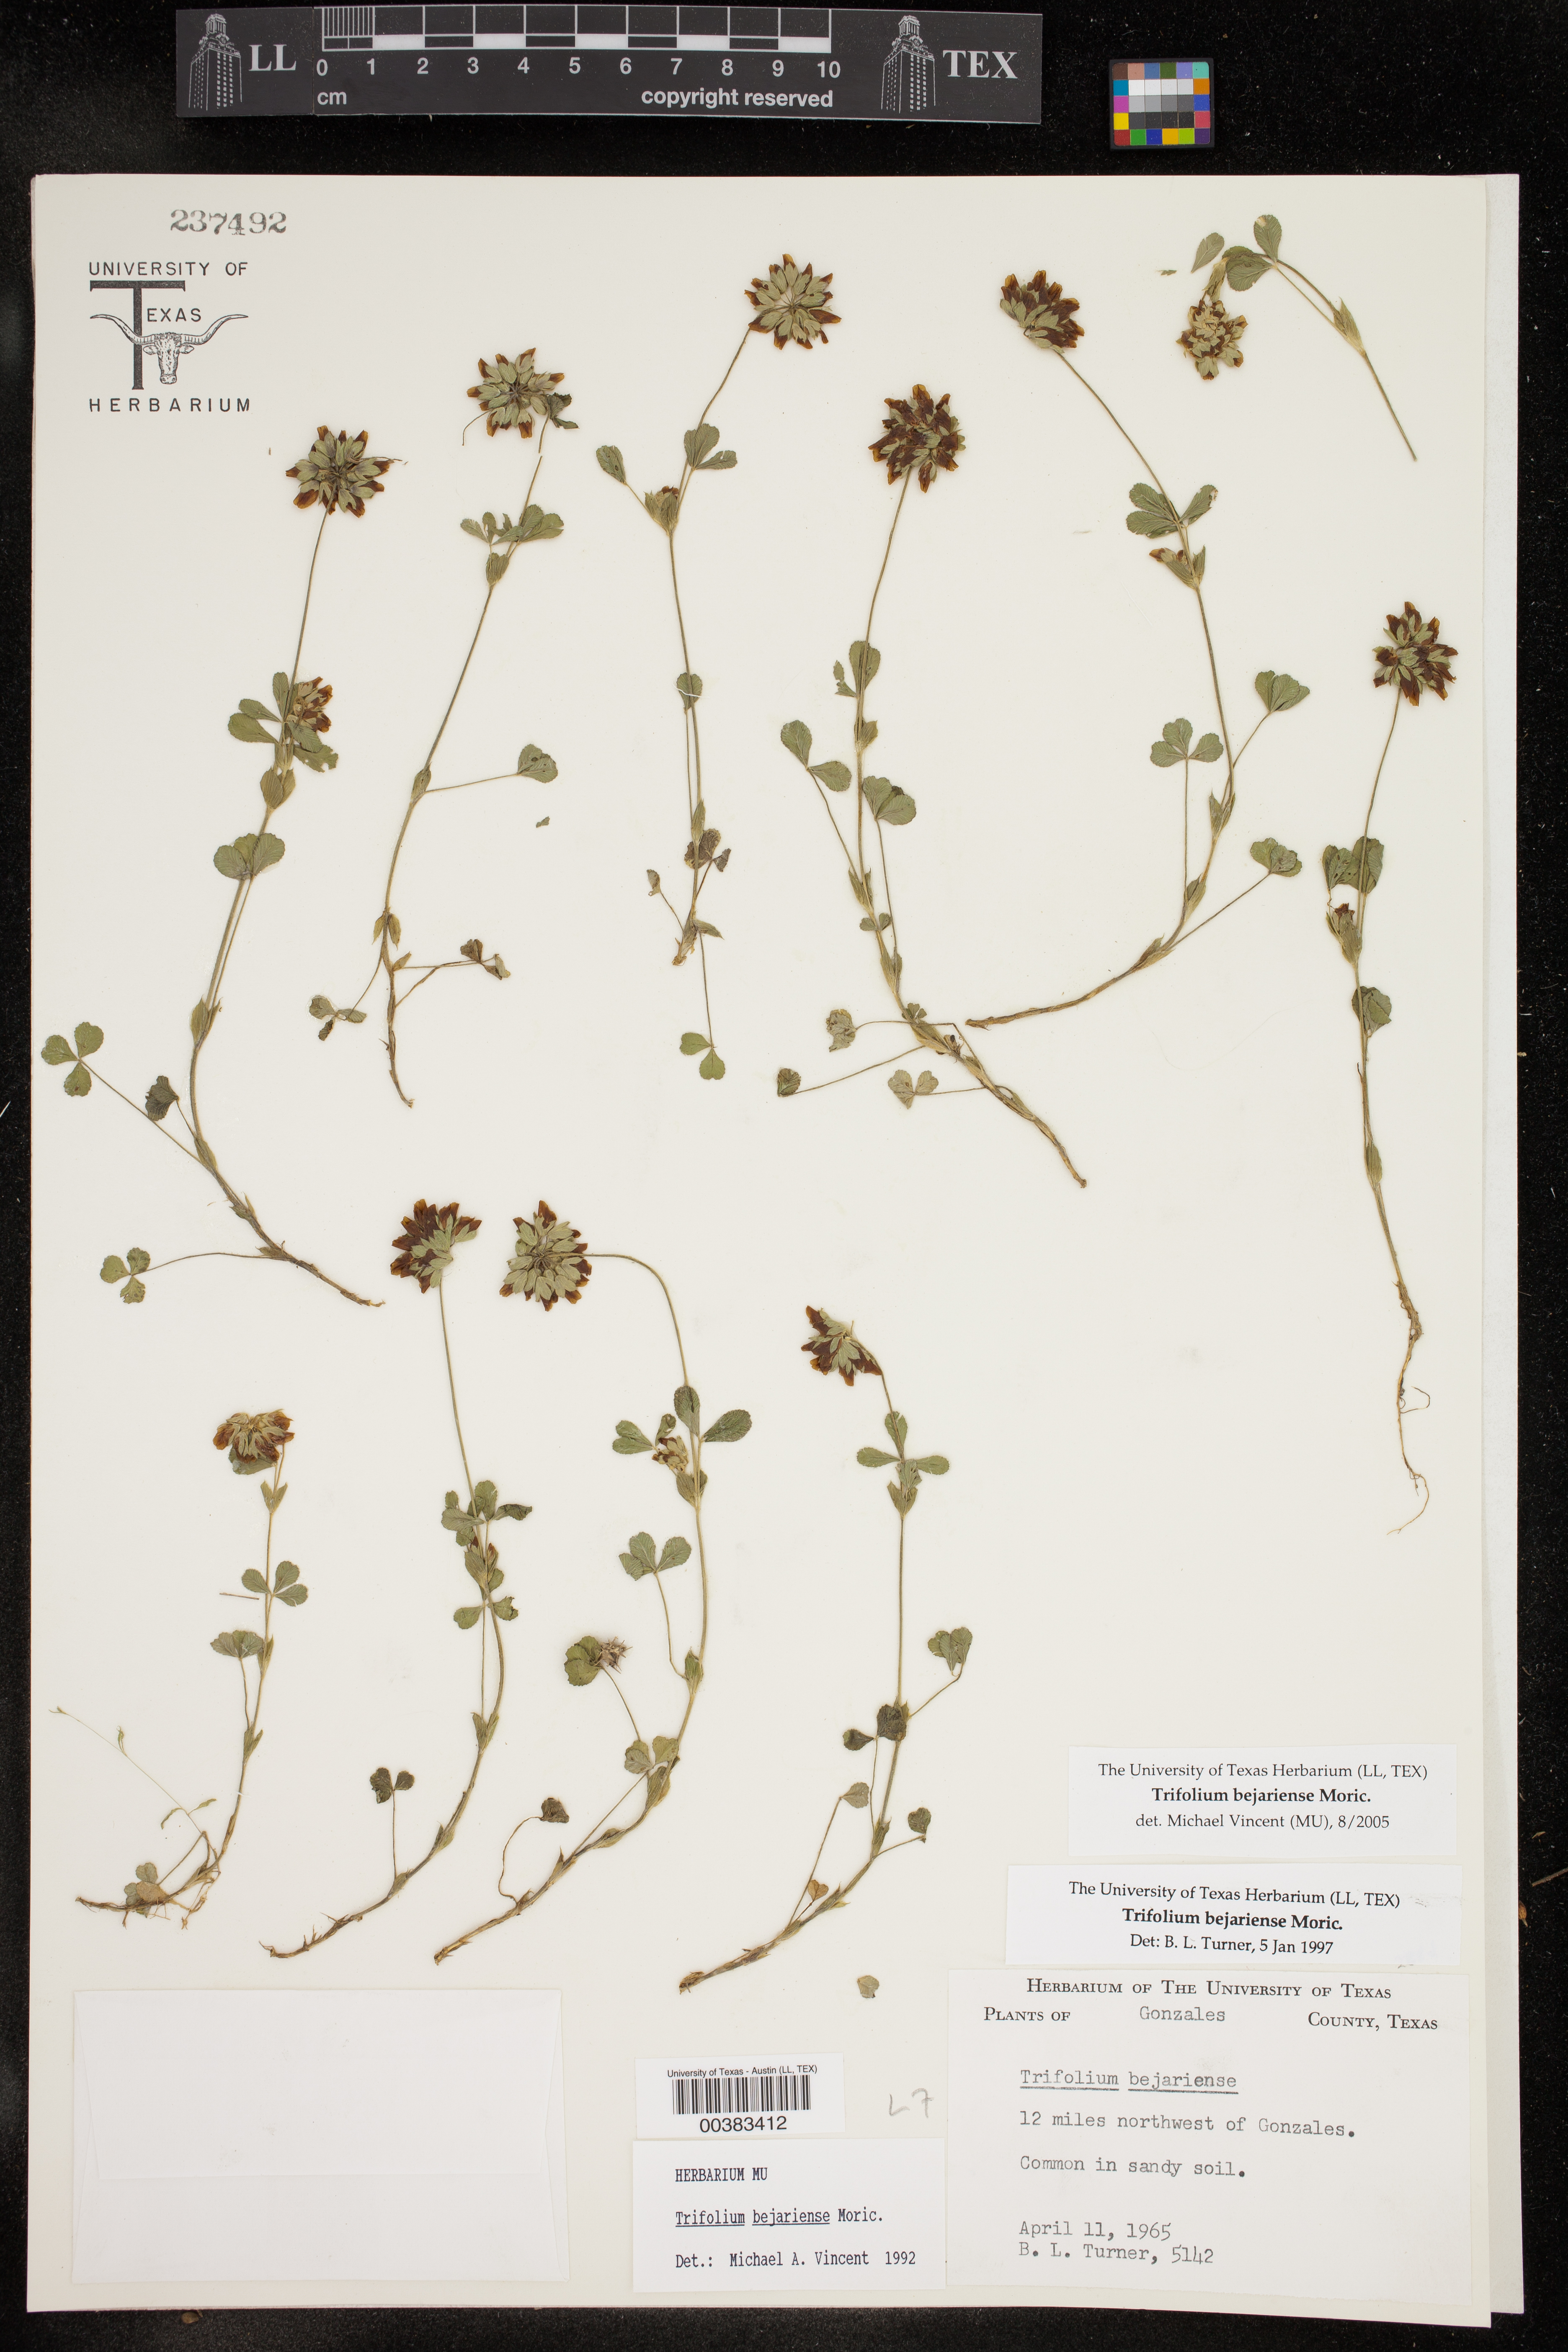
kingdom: Plantae
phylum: Tracheophyta
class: Magnoliopsida
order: Fabales
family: Fabaceae
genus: Trifolium
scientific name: Trifolium bejariense
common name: Bejar clover
